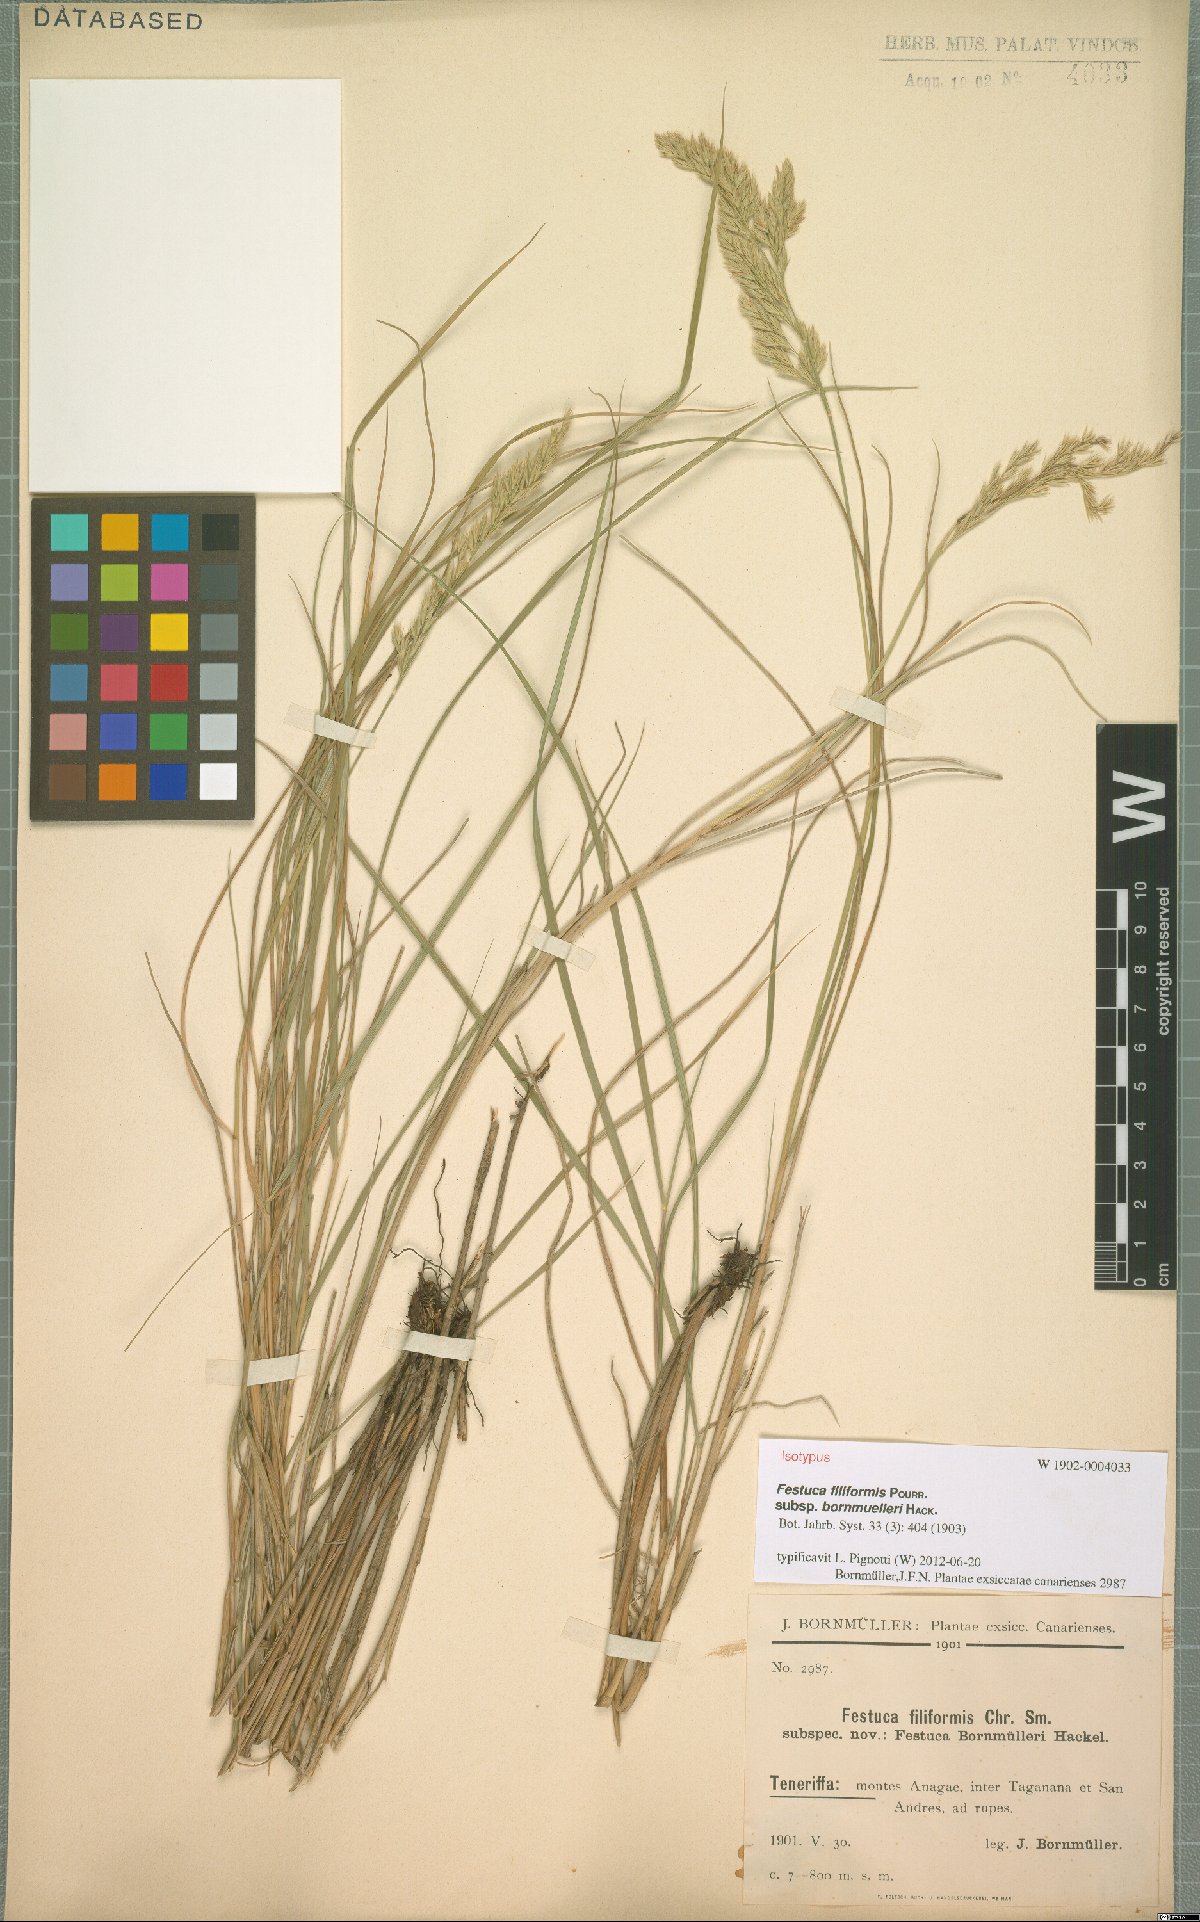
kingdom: Plantae
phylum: Tracheophyta
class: Liliopsida
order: Poales
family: Poaceae
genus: Festuca
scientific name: Festuca agustini
